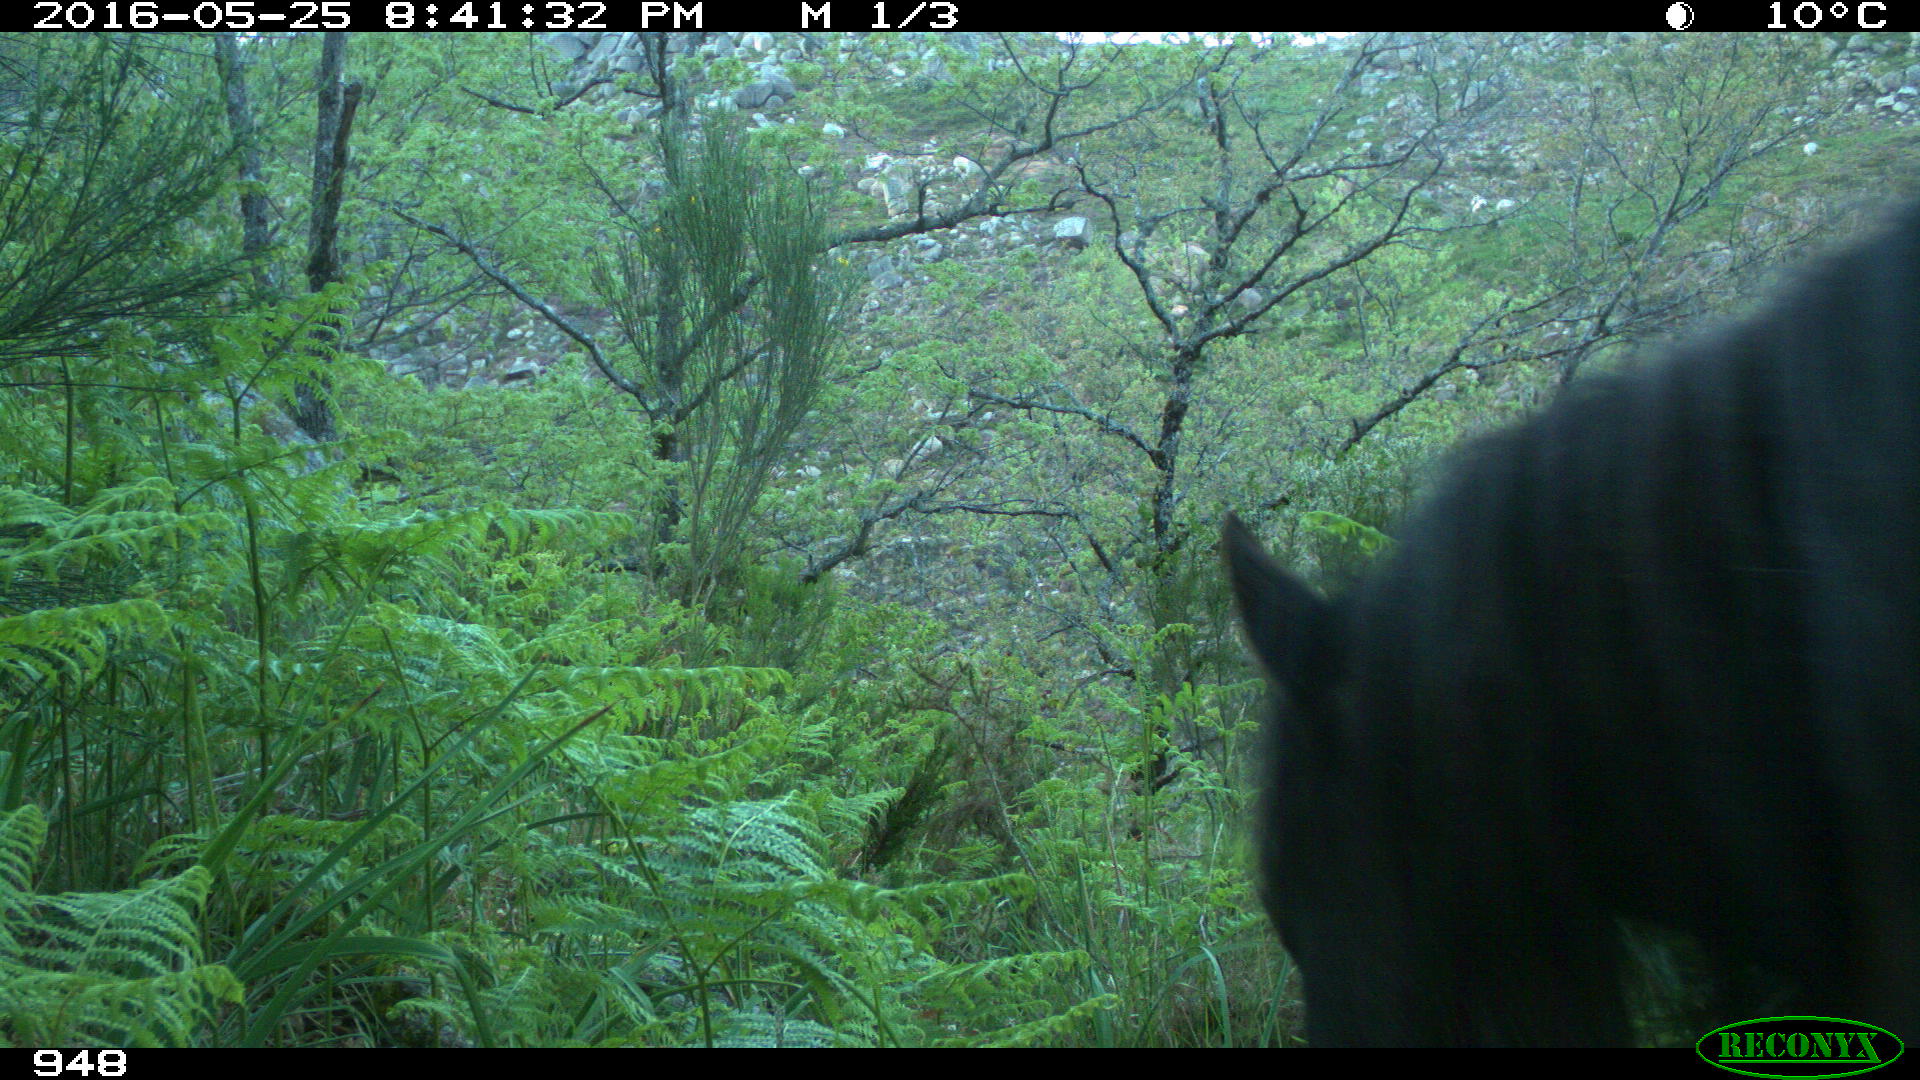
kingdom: Animalia
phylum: Chordata
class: Mammalia
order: Perissodactyla
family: Equidae
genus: Equus
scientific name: Equus caballus
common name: Horse
